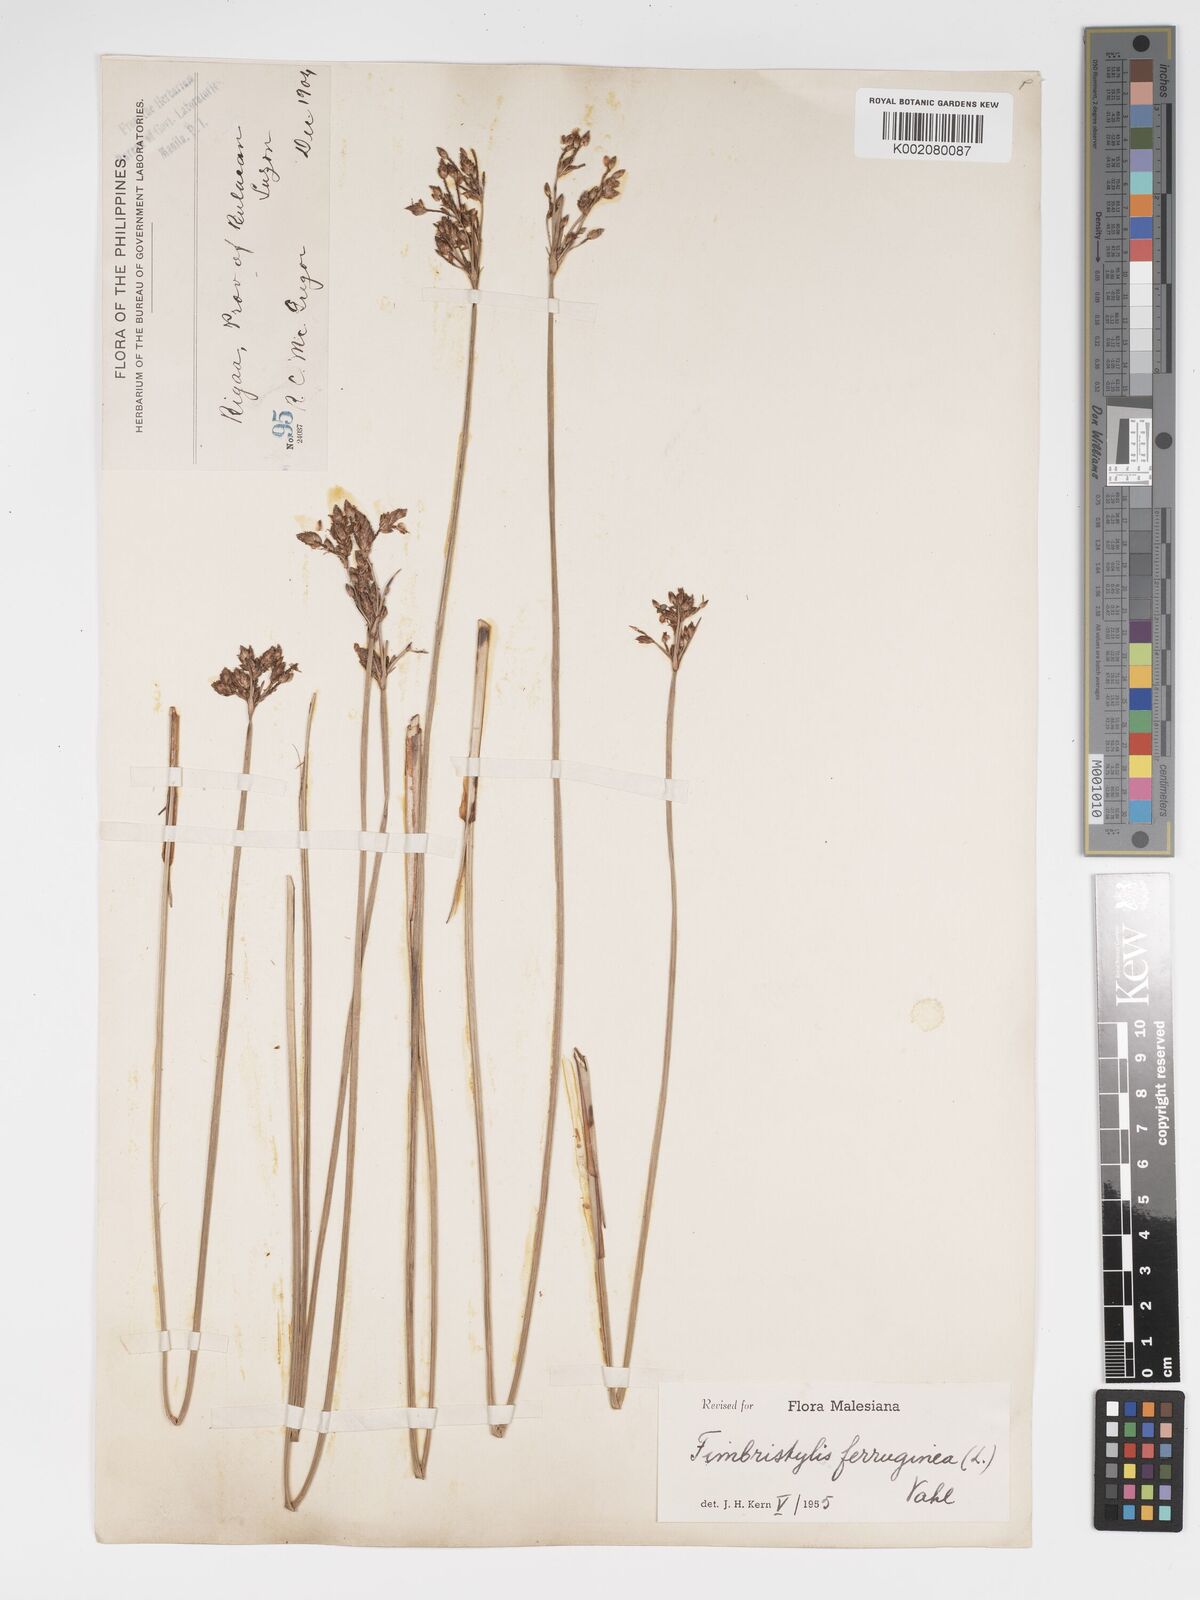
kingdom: Plantae
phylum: Tracheophyta
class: Liliopsida
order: Poales
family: Cyperaceae
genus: Fimbristylis
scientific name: Fimbristylis ferruginea
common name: West indian fimbry
